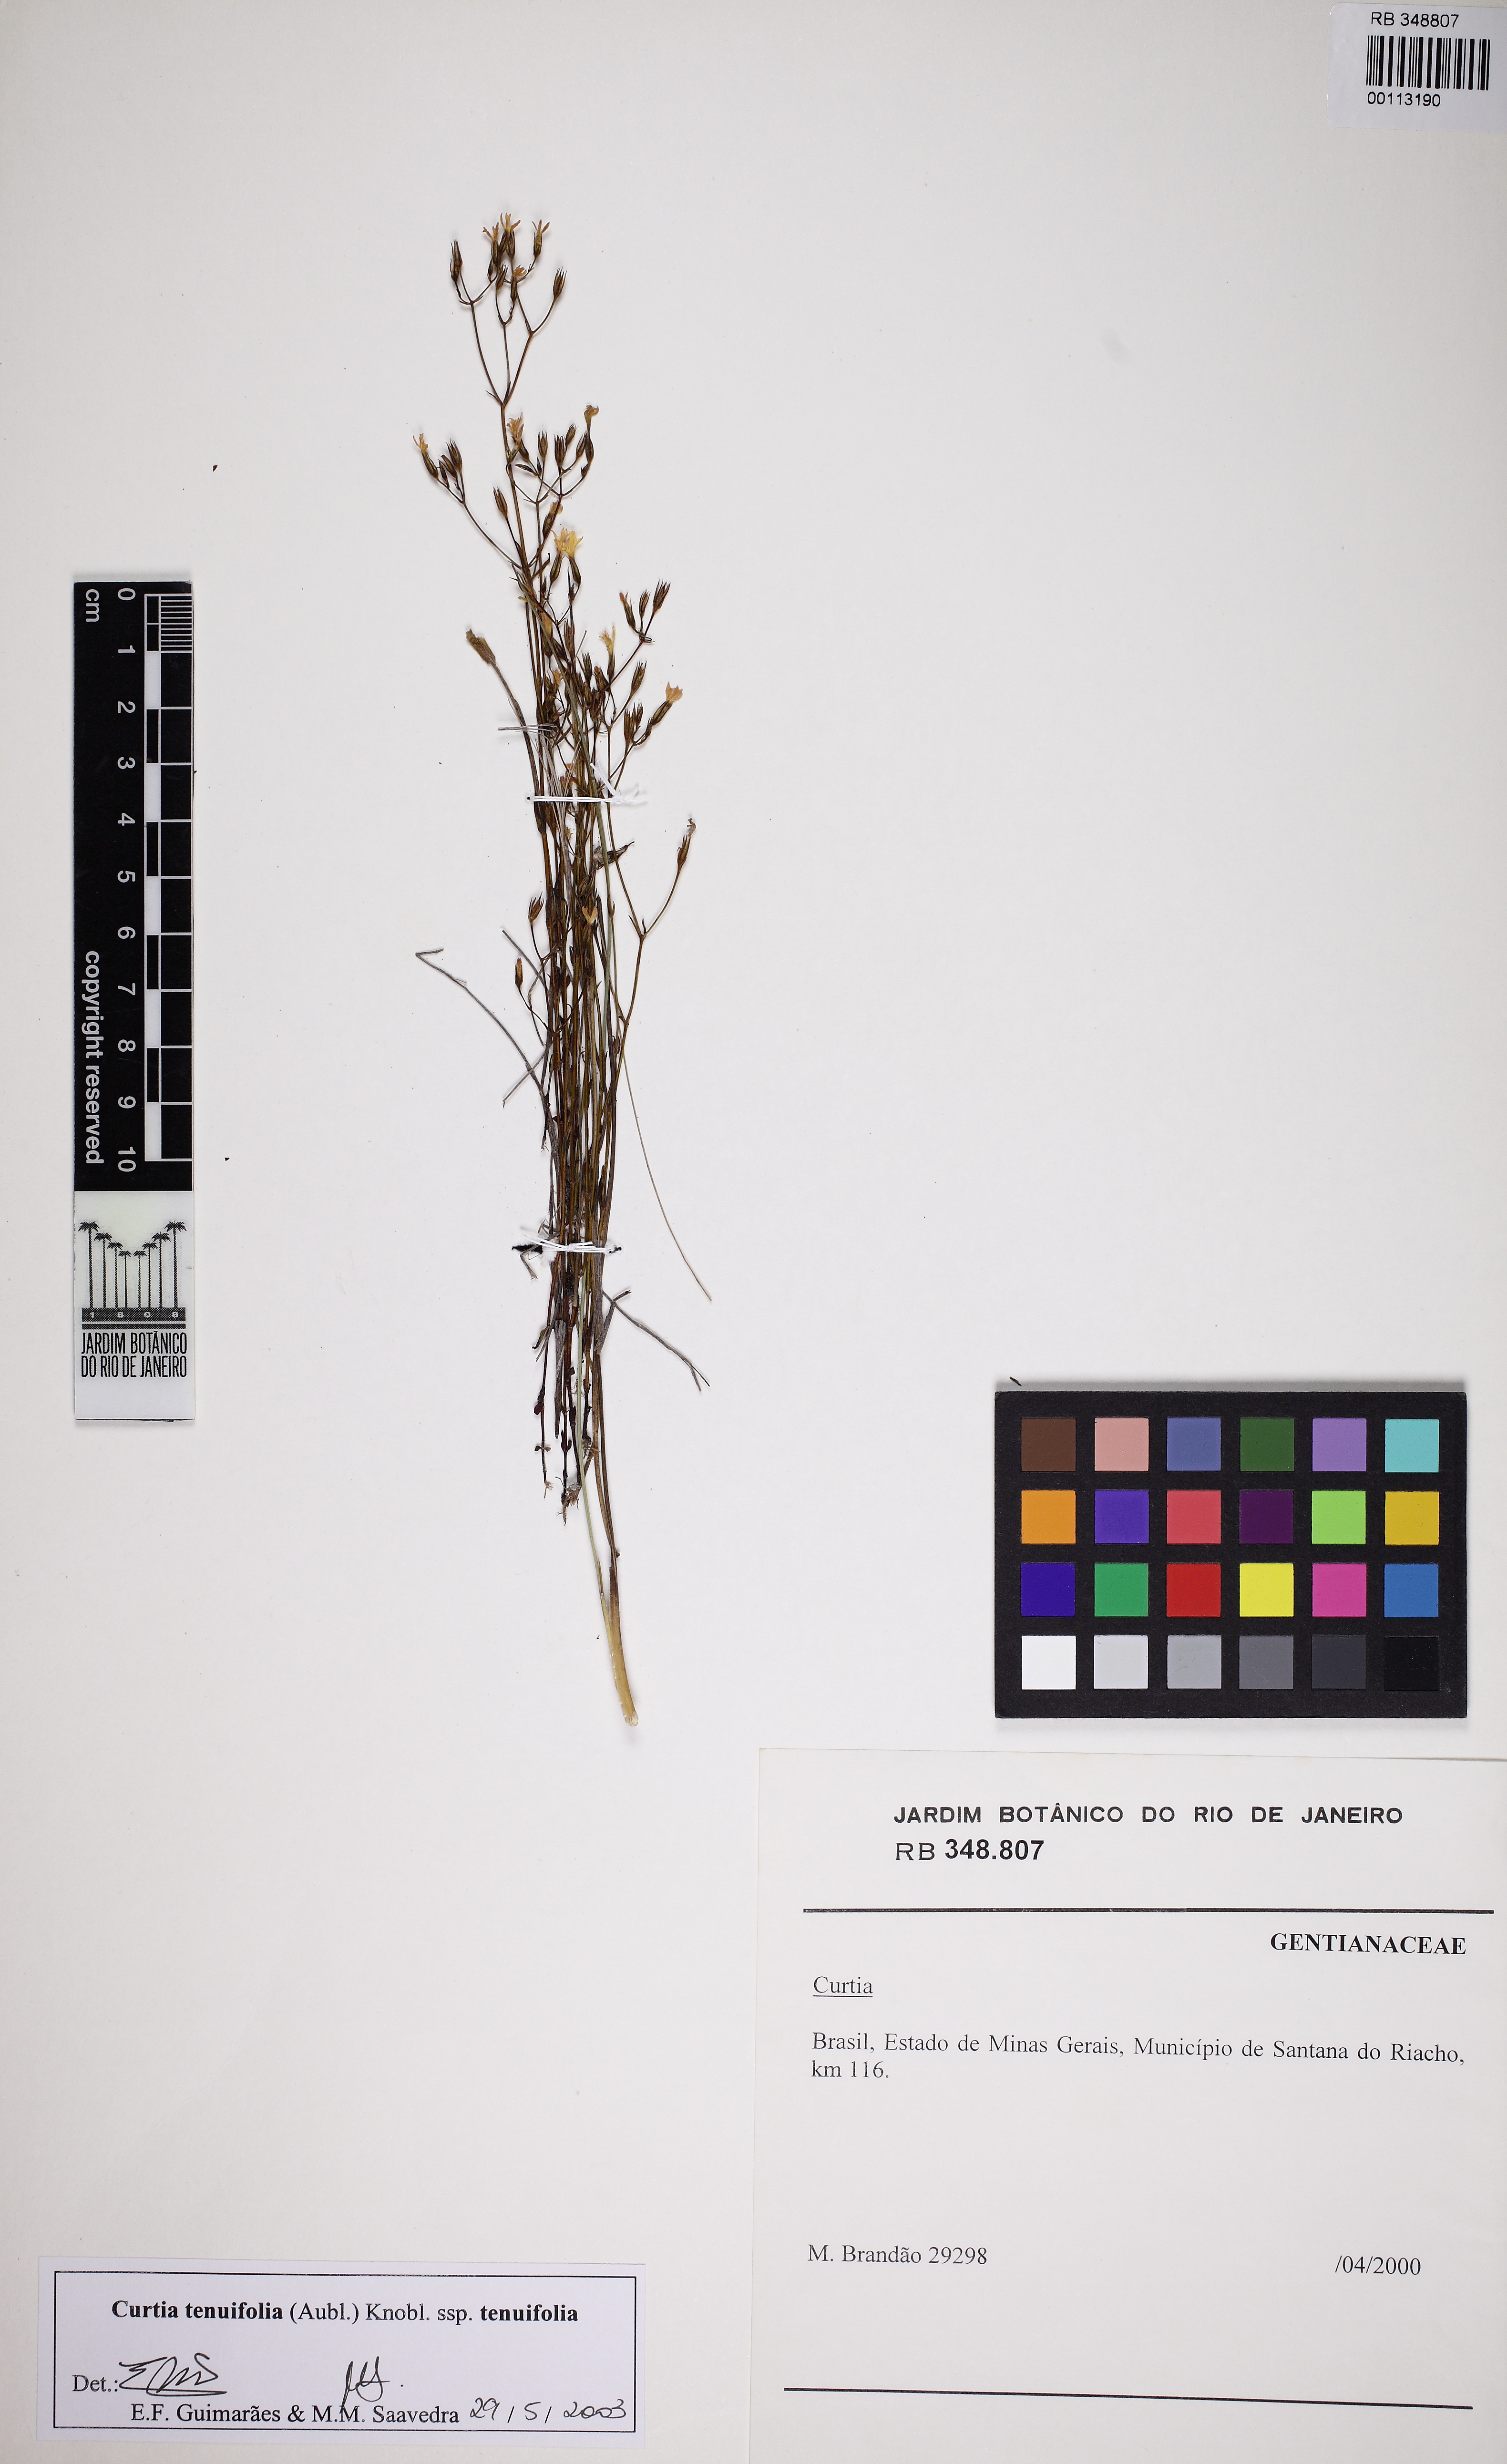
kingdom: Plantae
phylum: Tracheophyta
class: Magnoliopsida
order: Gentianales
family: Gentianaceae
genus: Curtia
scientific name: Curtia tenuifolia
